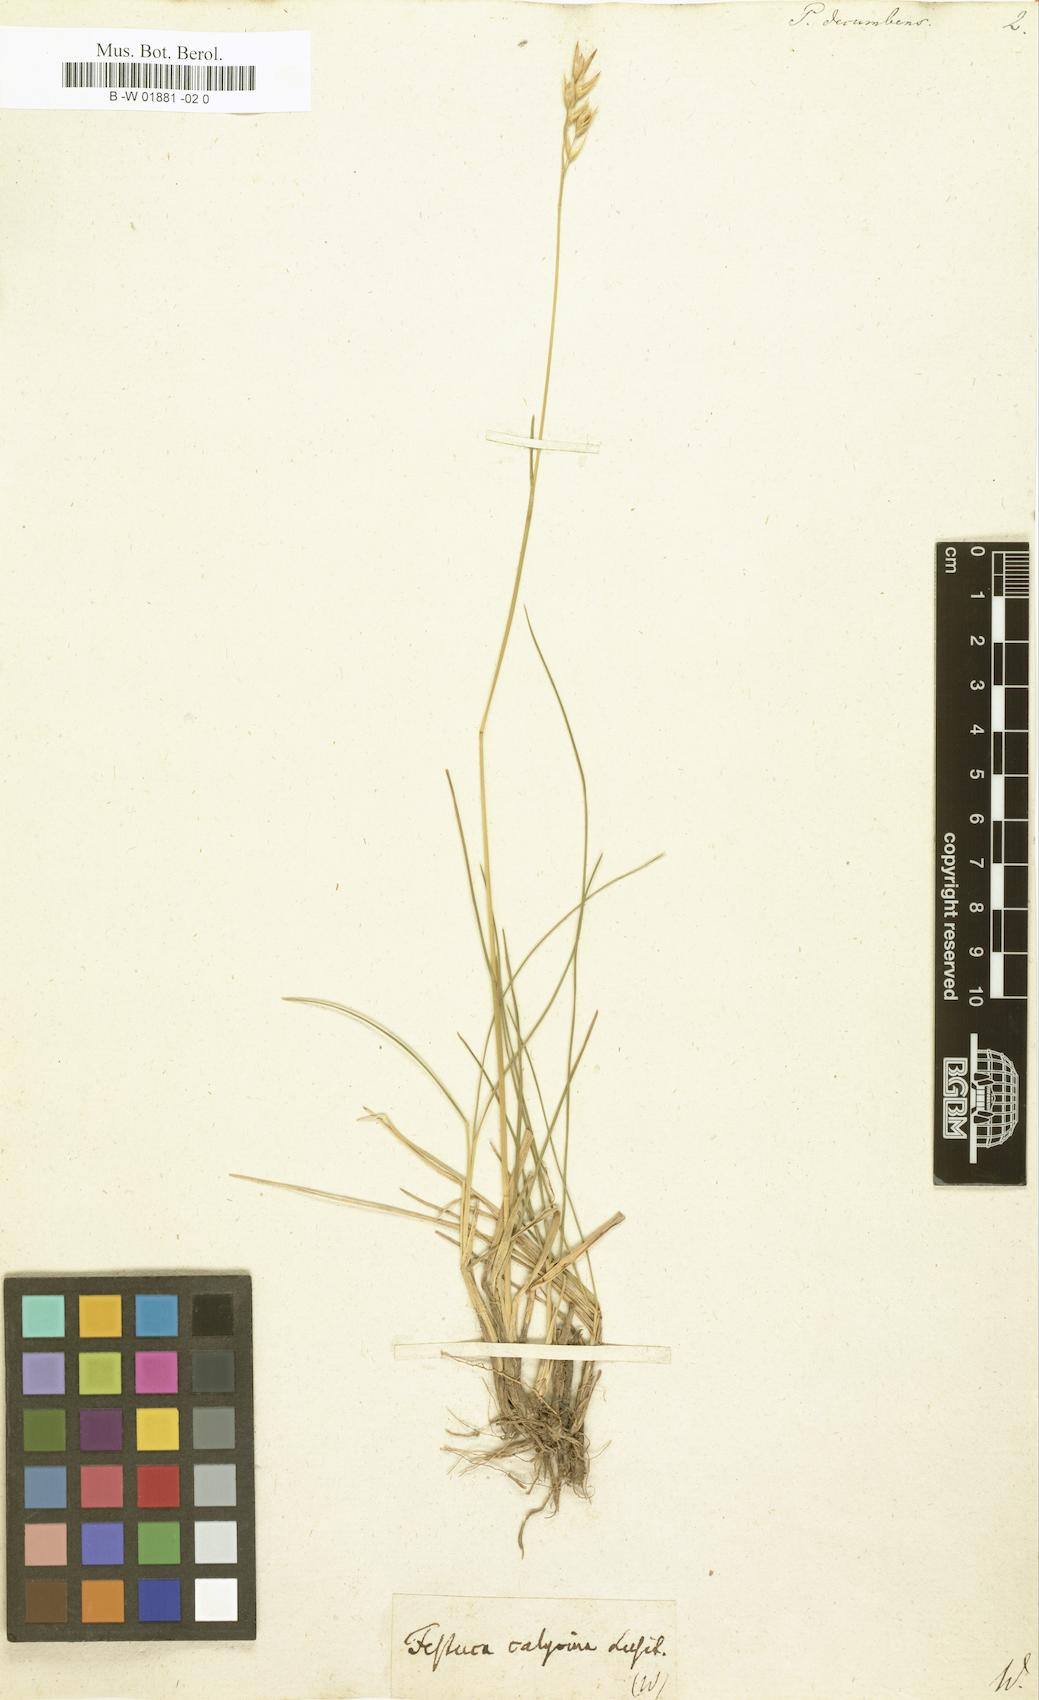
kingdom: Plantae
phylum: Tracheophyta
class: Liliopsida
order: Poales
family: Poaceae
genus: Danthonia
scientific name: Danthonia decumbens
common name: Common heathgrass
